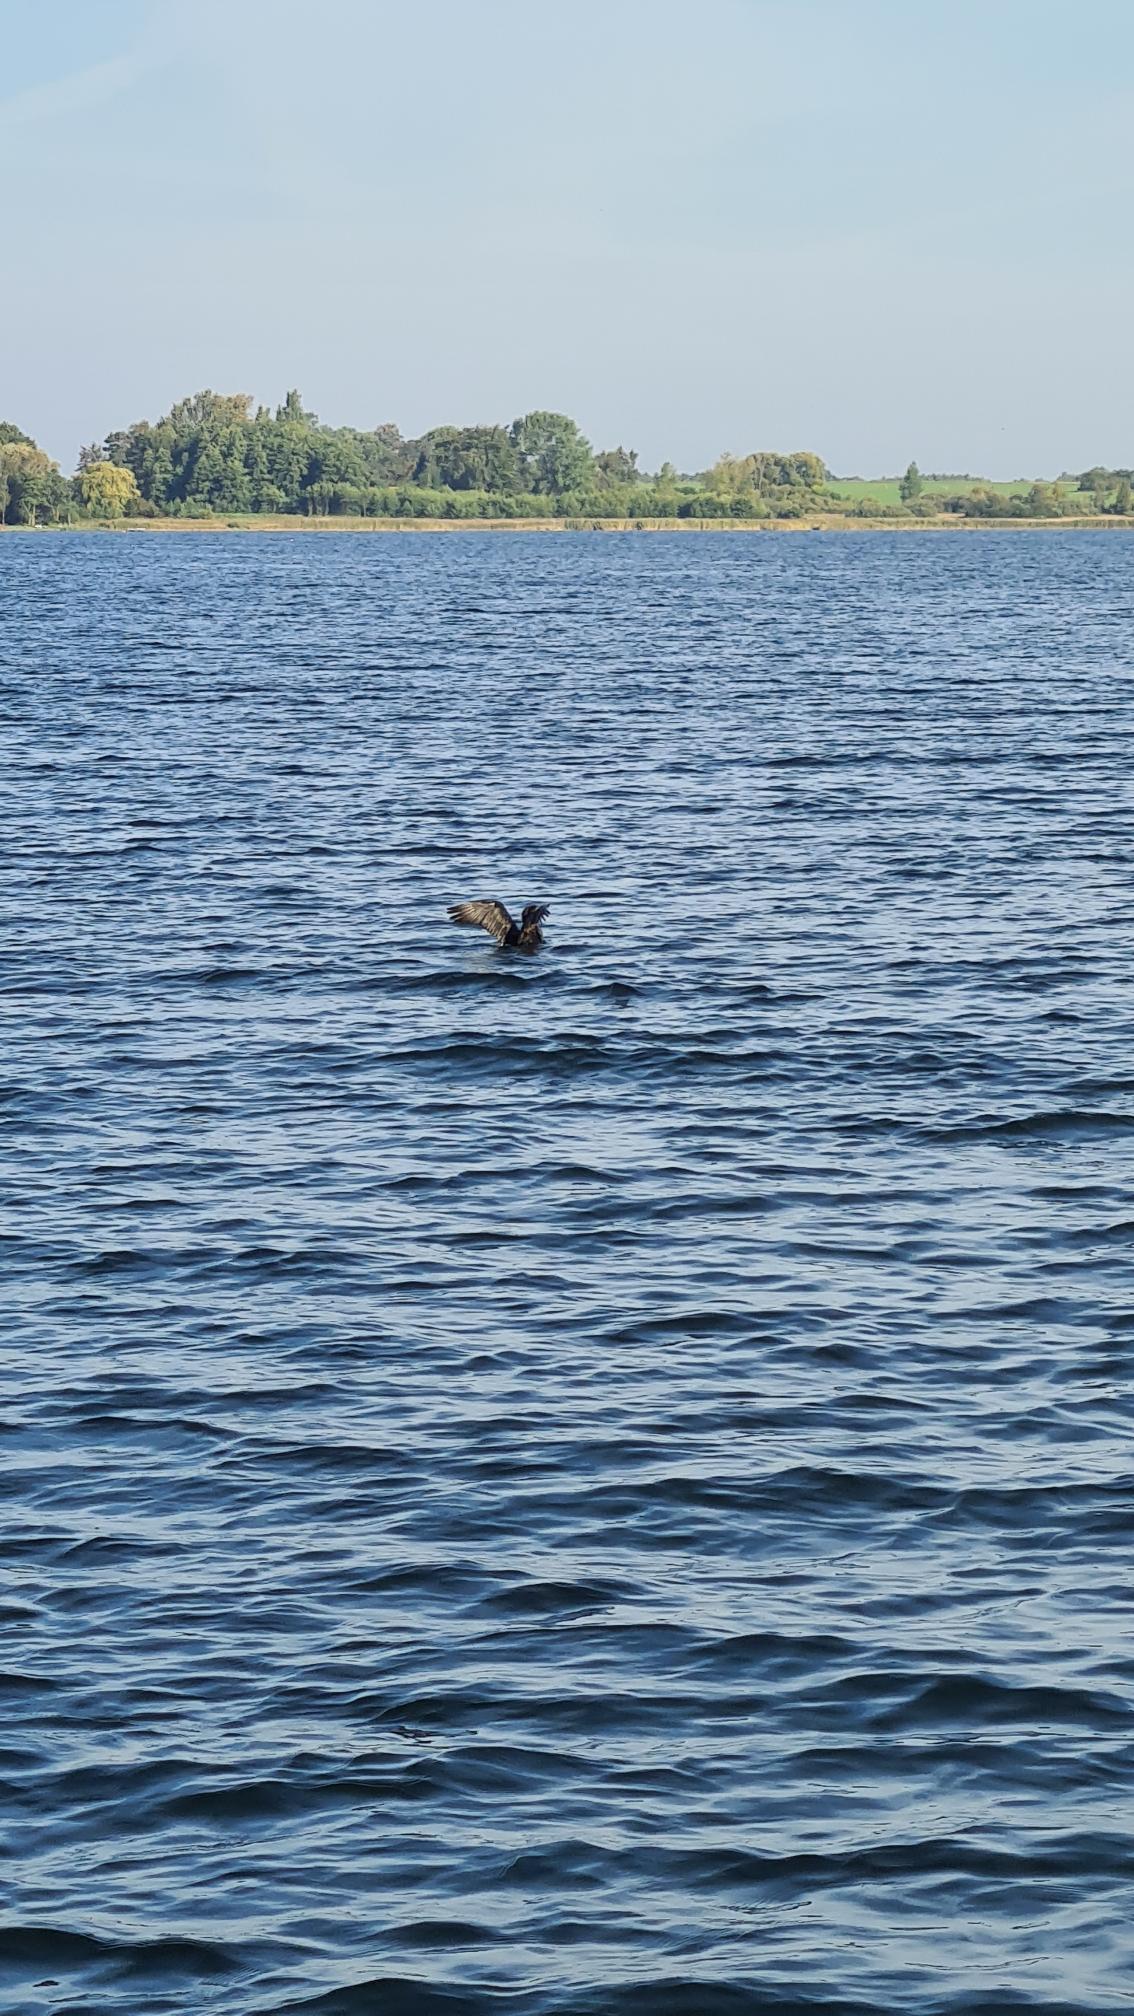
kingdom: Animalia
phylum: Chordata
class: Aves
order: Suliformes
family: Phalacrocoracidae
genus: Phalacrocorax
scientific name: Phalacrocorax carbo
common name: Skarv
